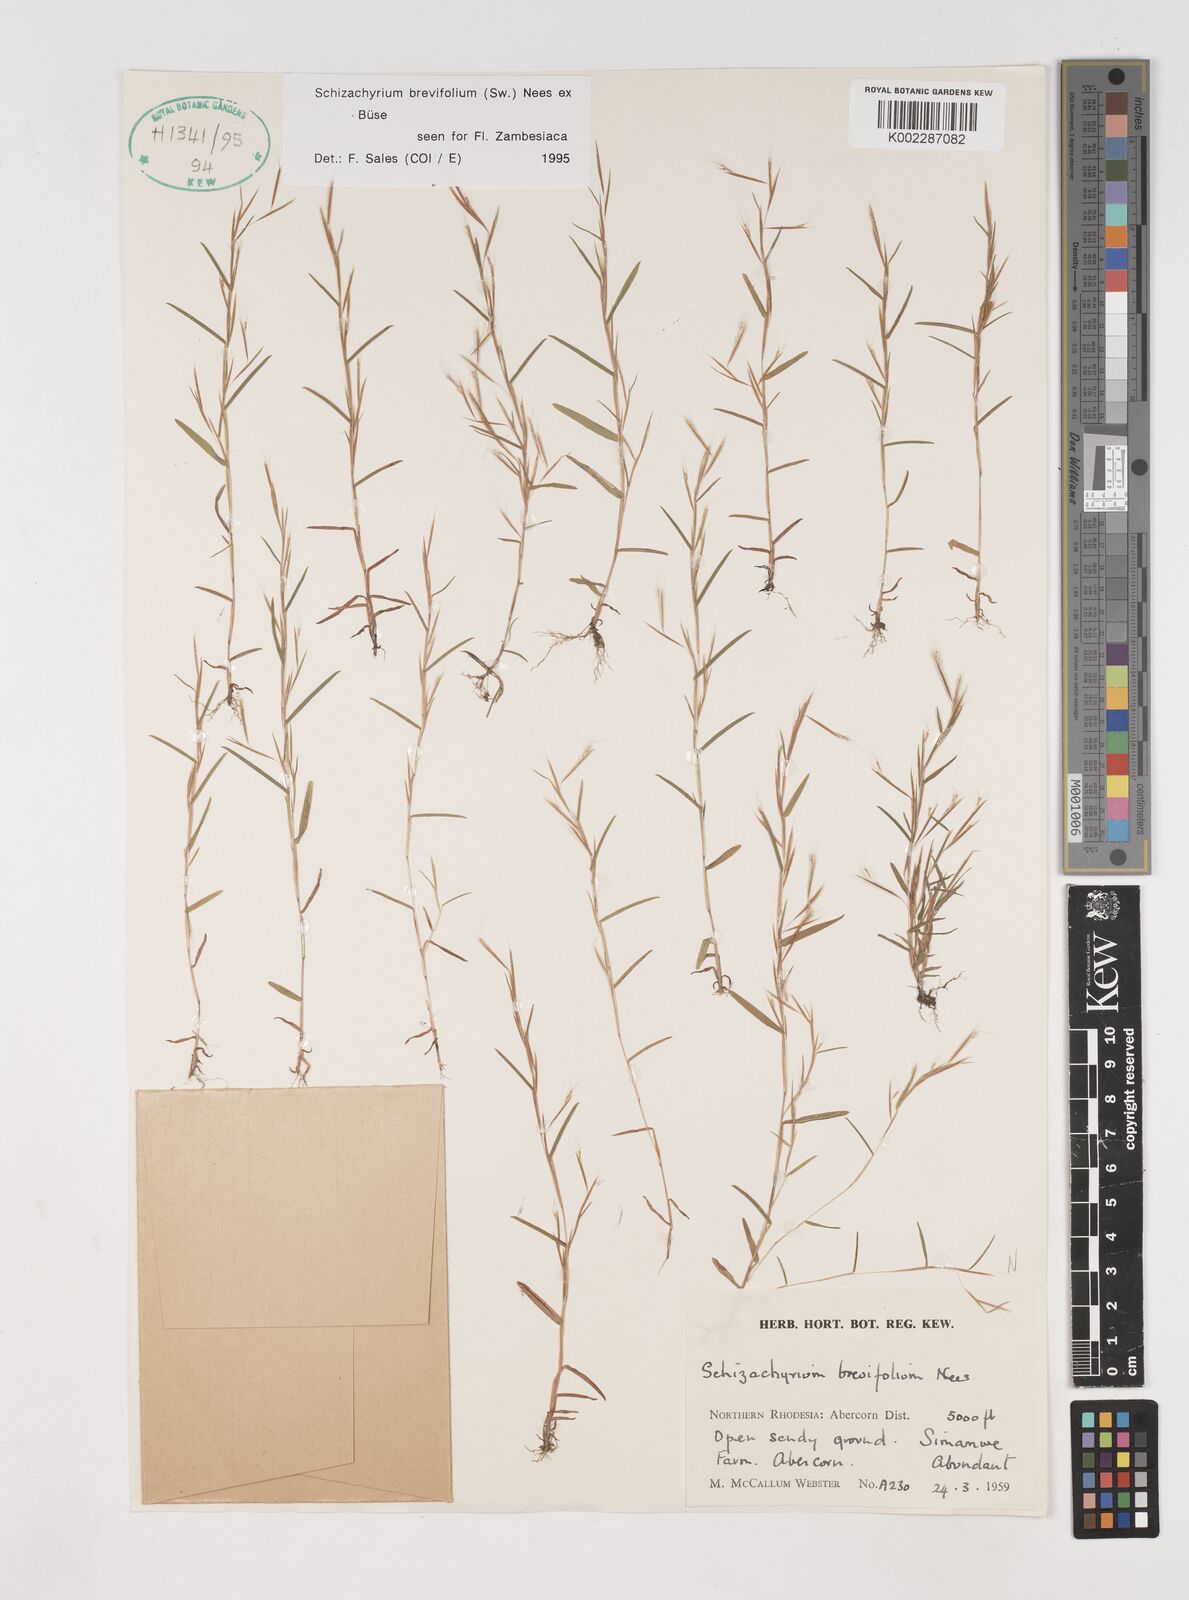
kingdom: Plantae
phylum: Tracheophyta
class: Liliopsida
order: Poales
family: Poaceae
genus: Schizachyrium
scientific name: Schizachyrium brevifolium
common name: Serillo dulce
